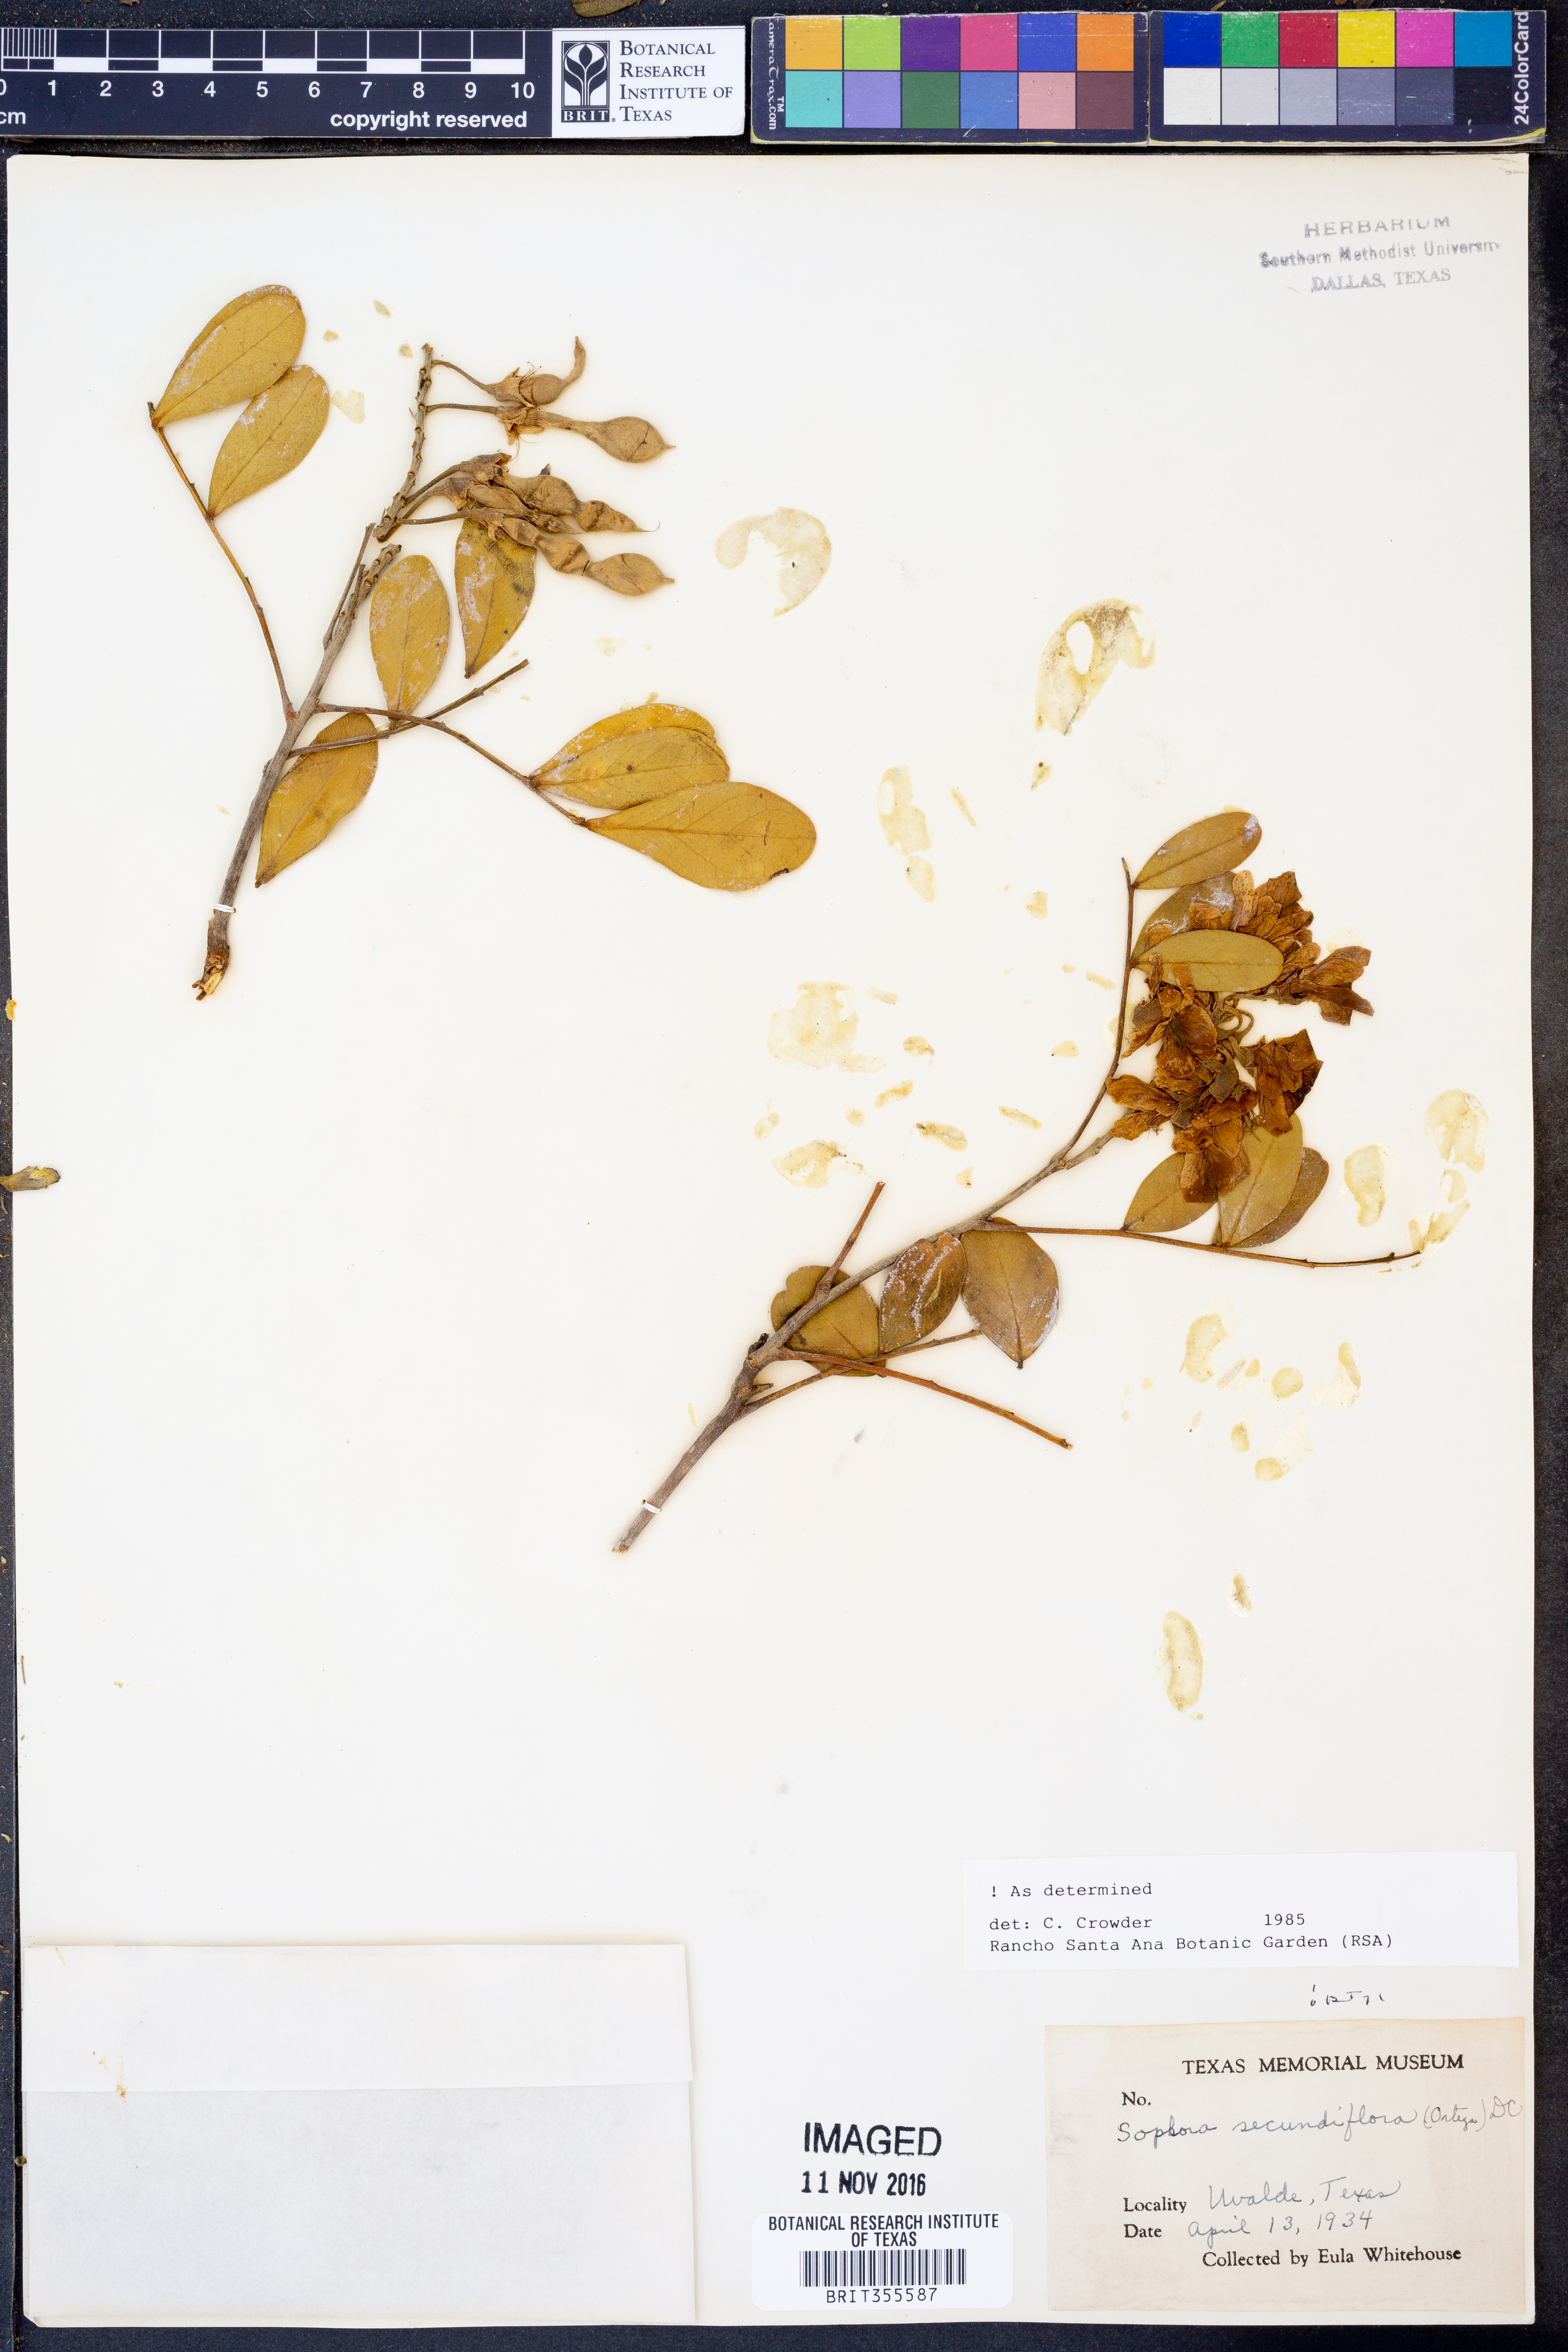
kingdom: Plantae
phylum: Tracheophyta
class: Magnoliopsida
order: Fabales
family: Fabaceae
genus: Dermatophyllum
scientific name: Dermatophyllum secundiflorum
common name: Texas-mountain-laurel
